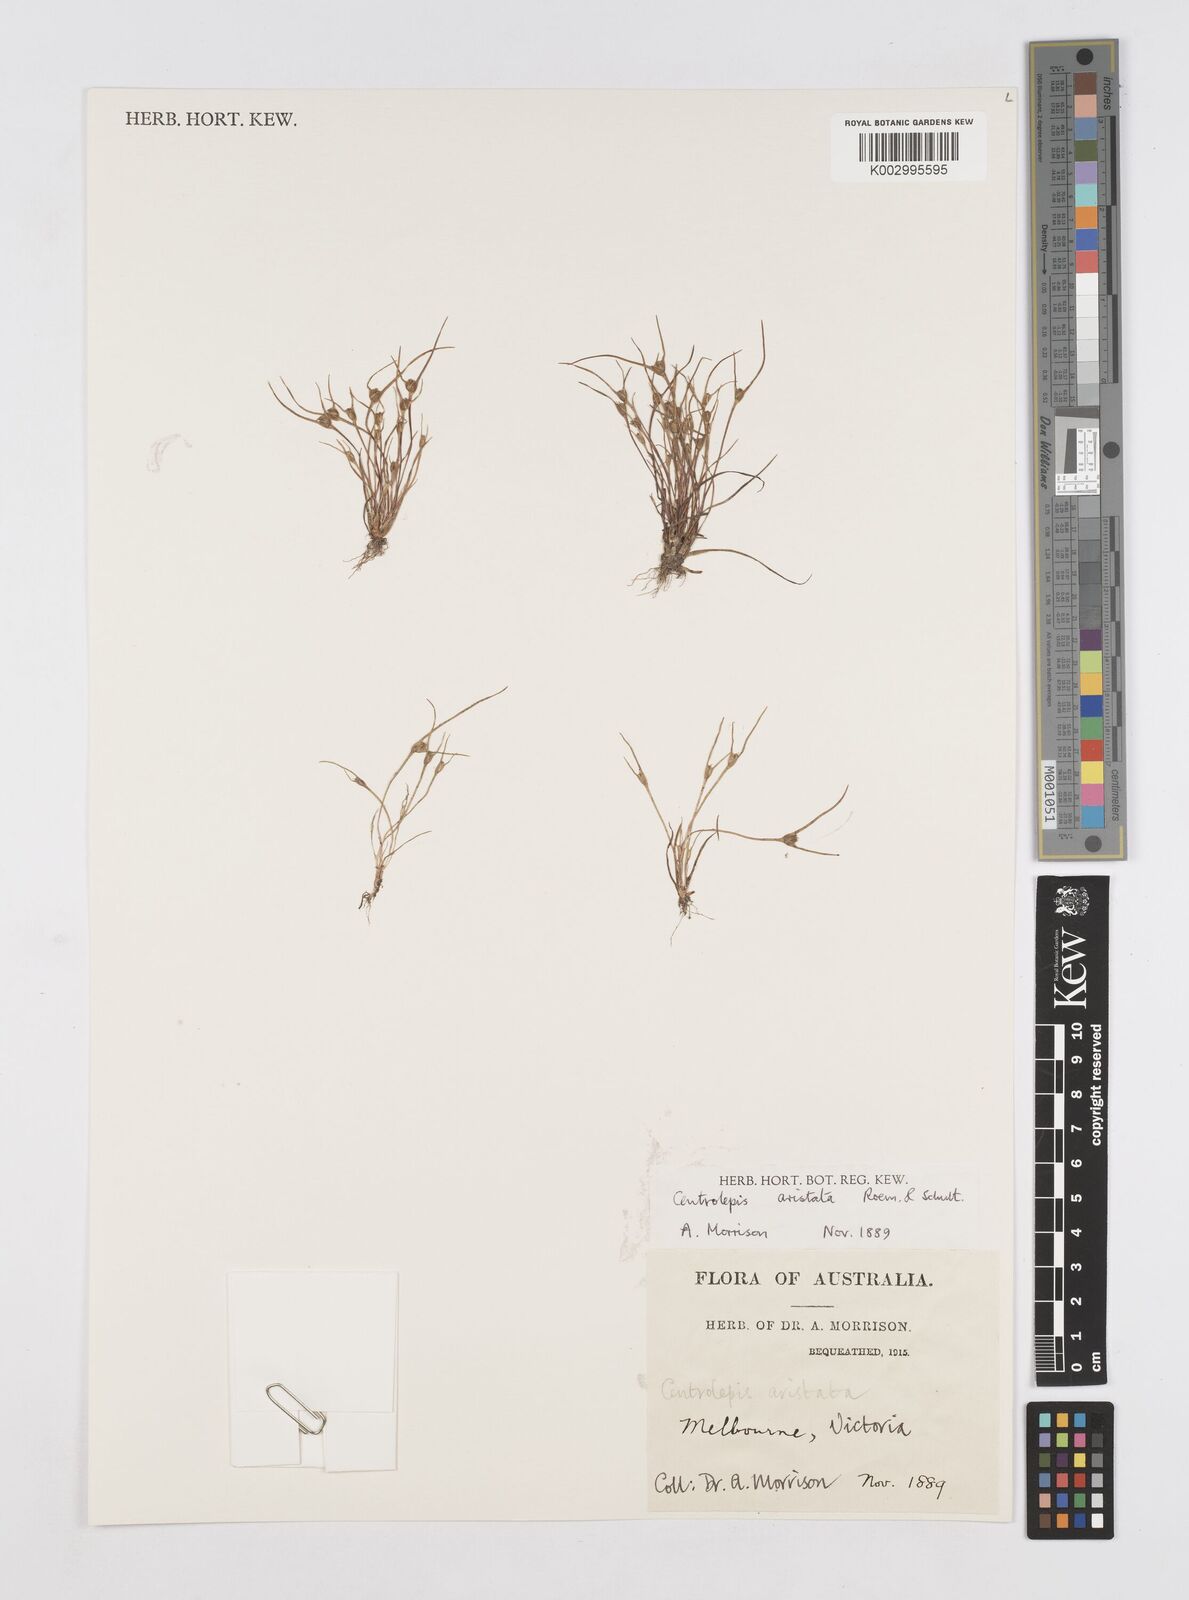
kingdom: Plantae
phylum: Tracheophyta
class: Liliopsida
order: Poales
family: Restionaceae
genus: Centrolepis
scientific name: Centrolepis aristata
